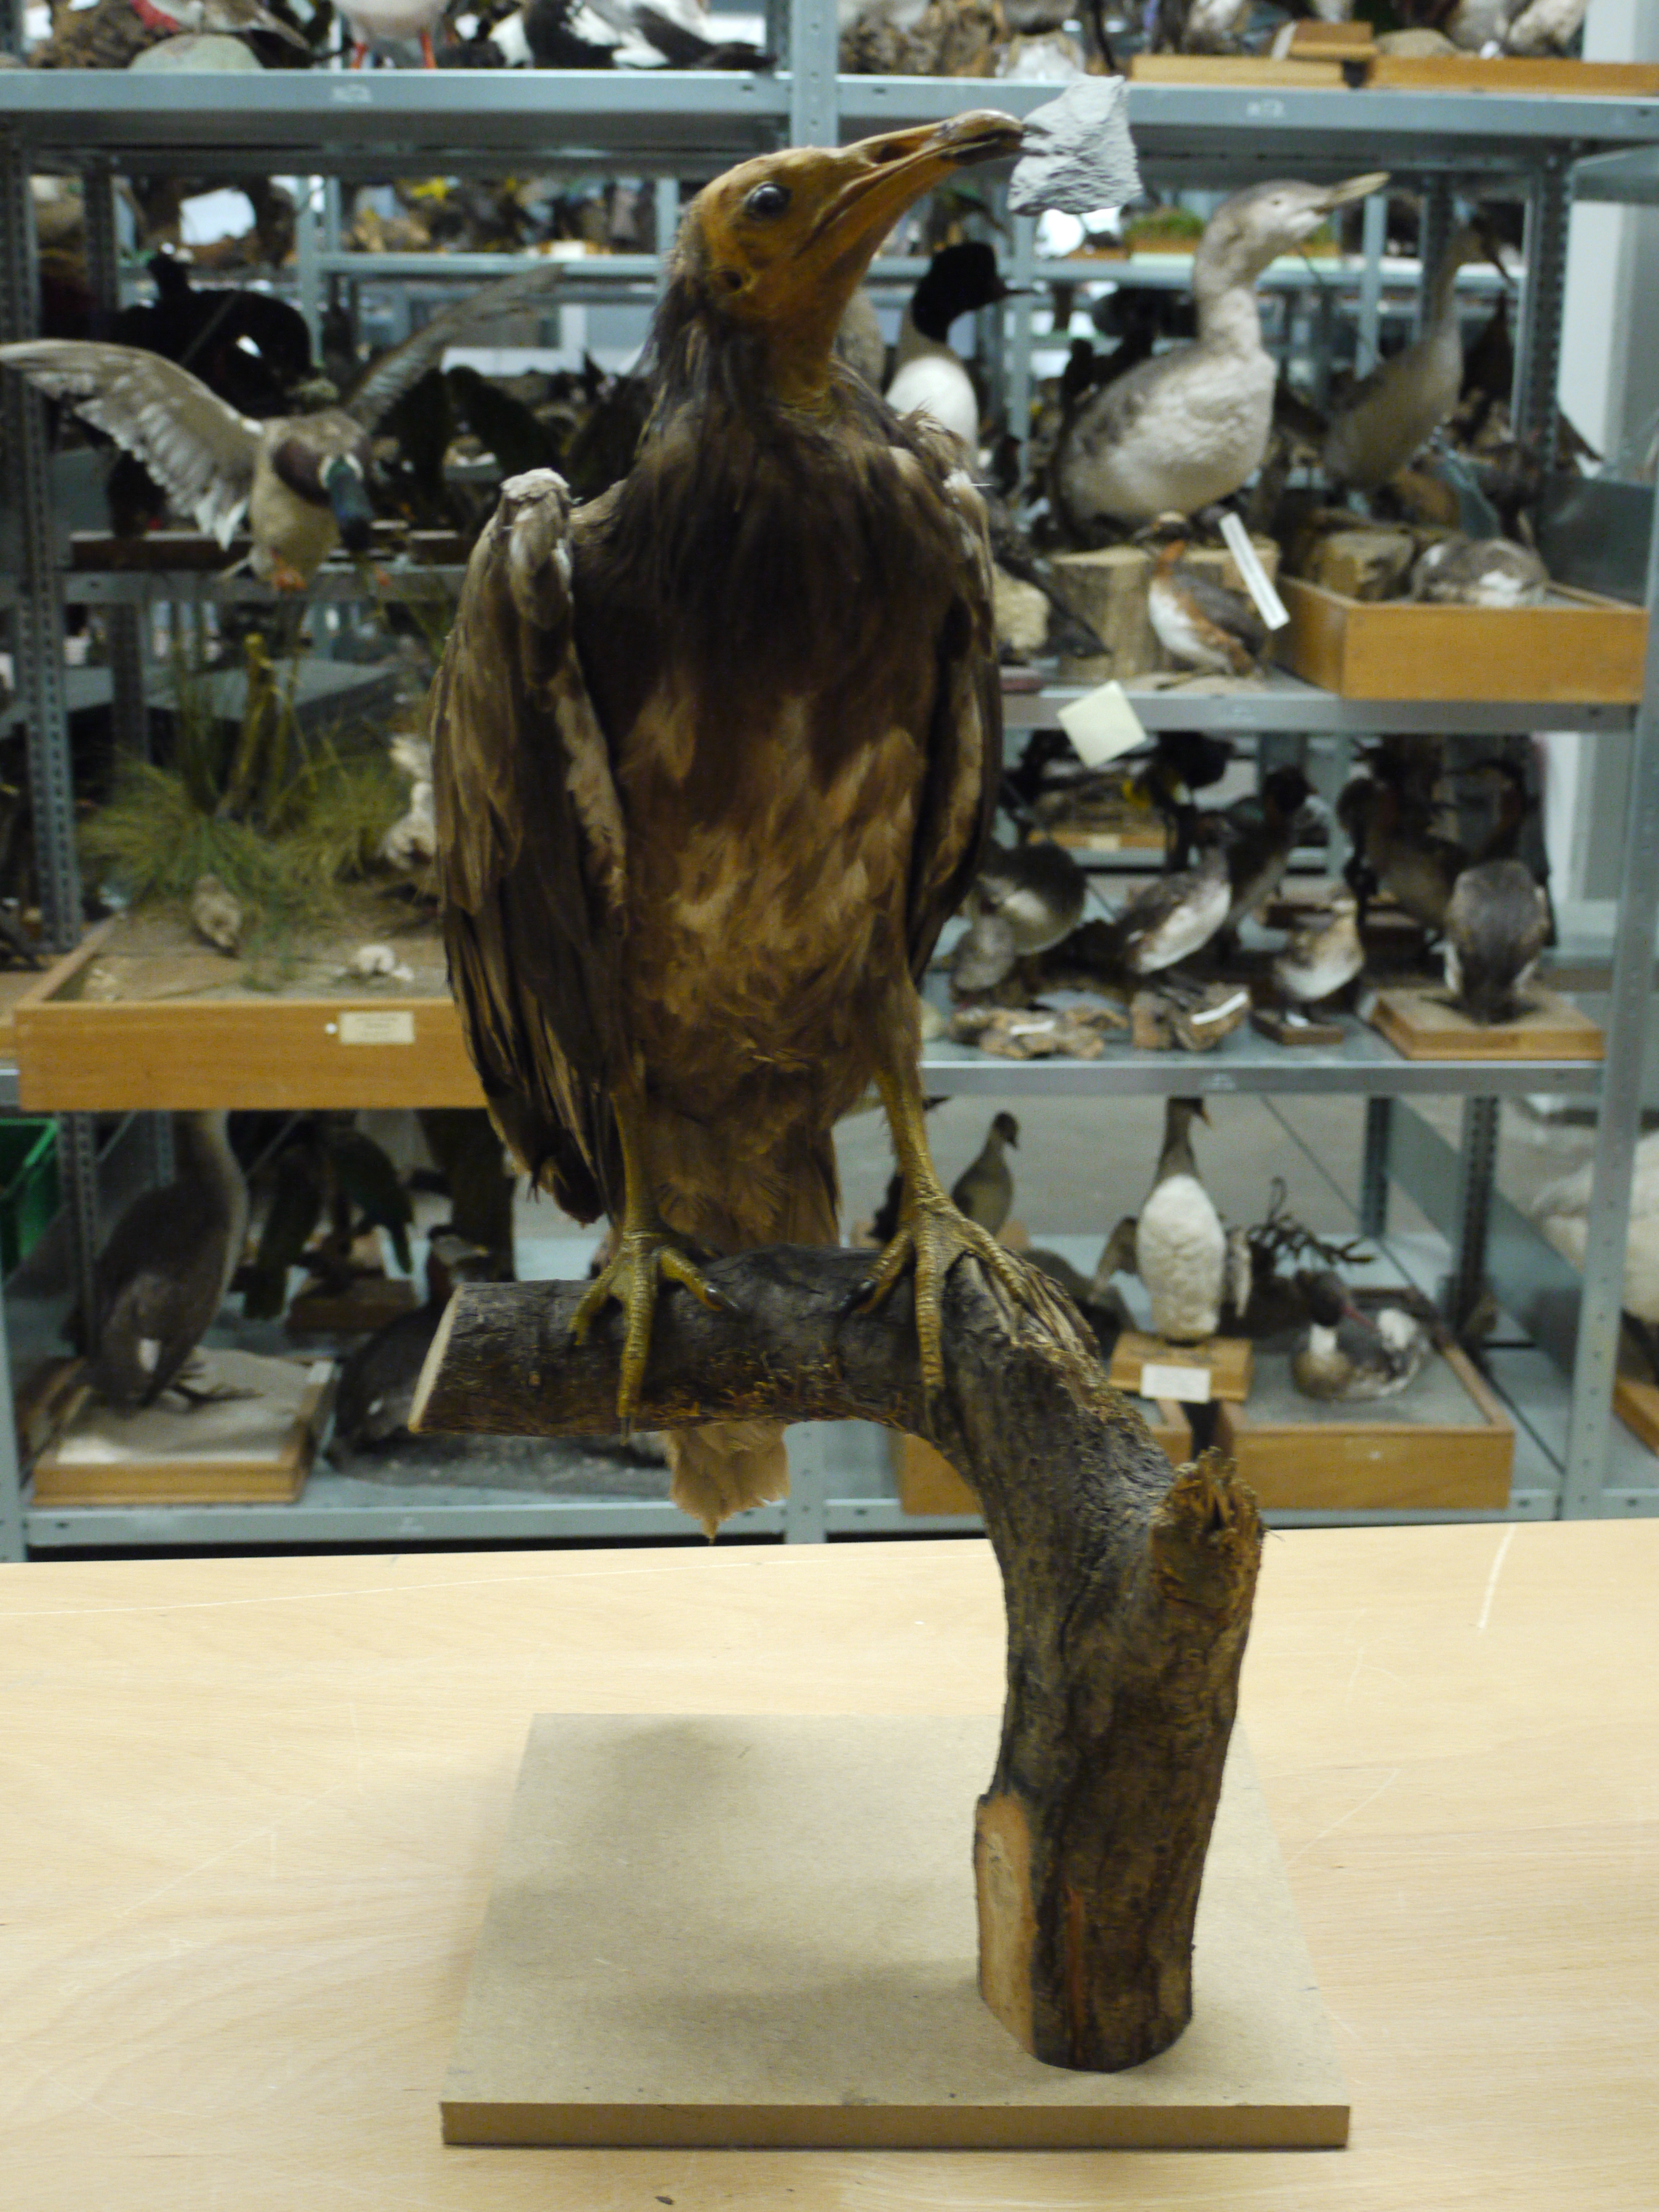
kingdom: Animalia
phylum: Chordata
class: Aves
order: Accipitriformes
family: Accipitridae
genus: Neophron
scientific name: Neophron percnopterus
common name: Egyptian vulture
